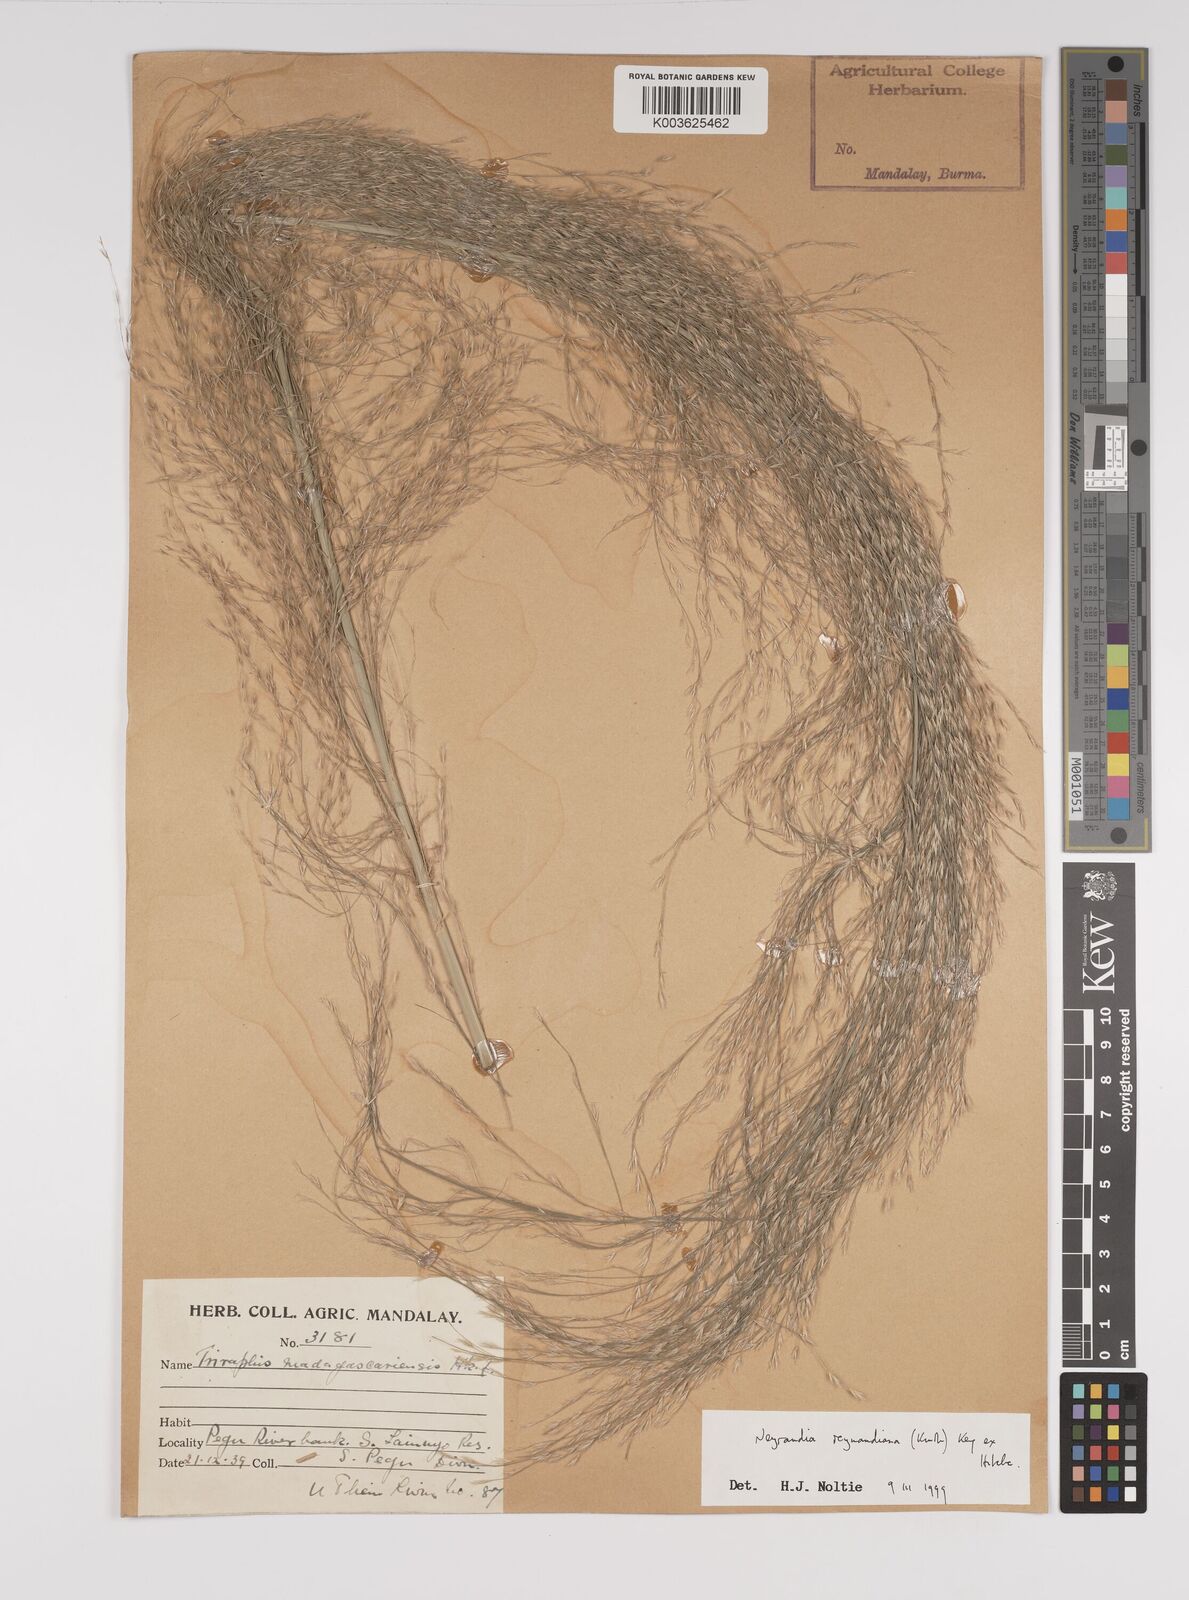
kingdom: Plantae
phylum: Tracheophyta
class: Liliopsida
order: Poales
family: Poaceae
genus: Neyraudia
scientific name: Neyraudia reynaudiana
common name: Silkreed
